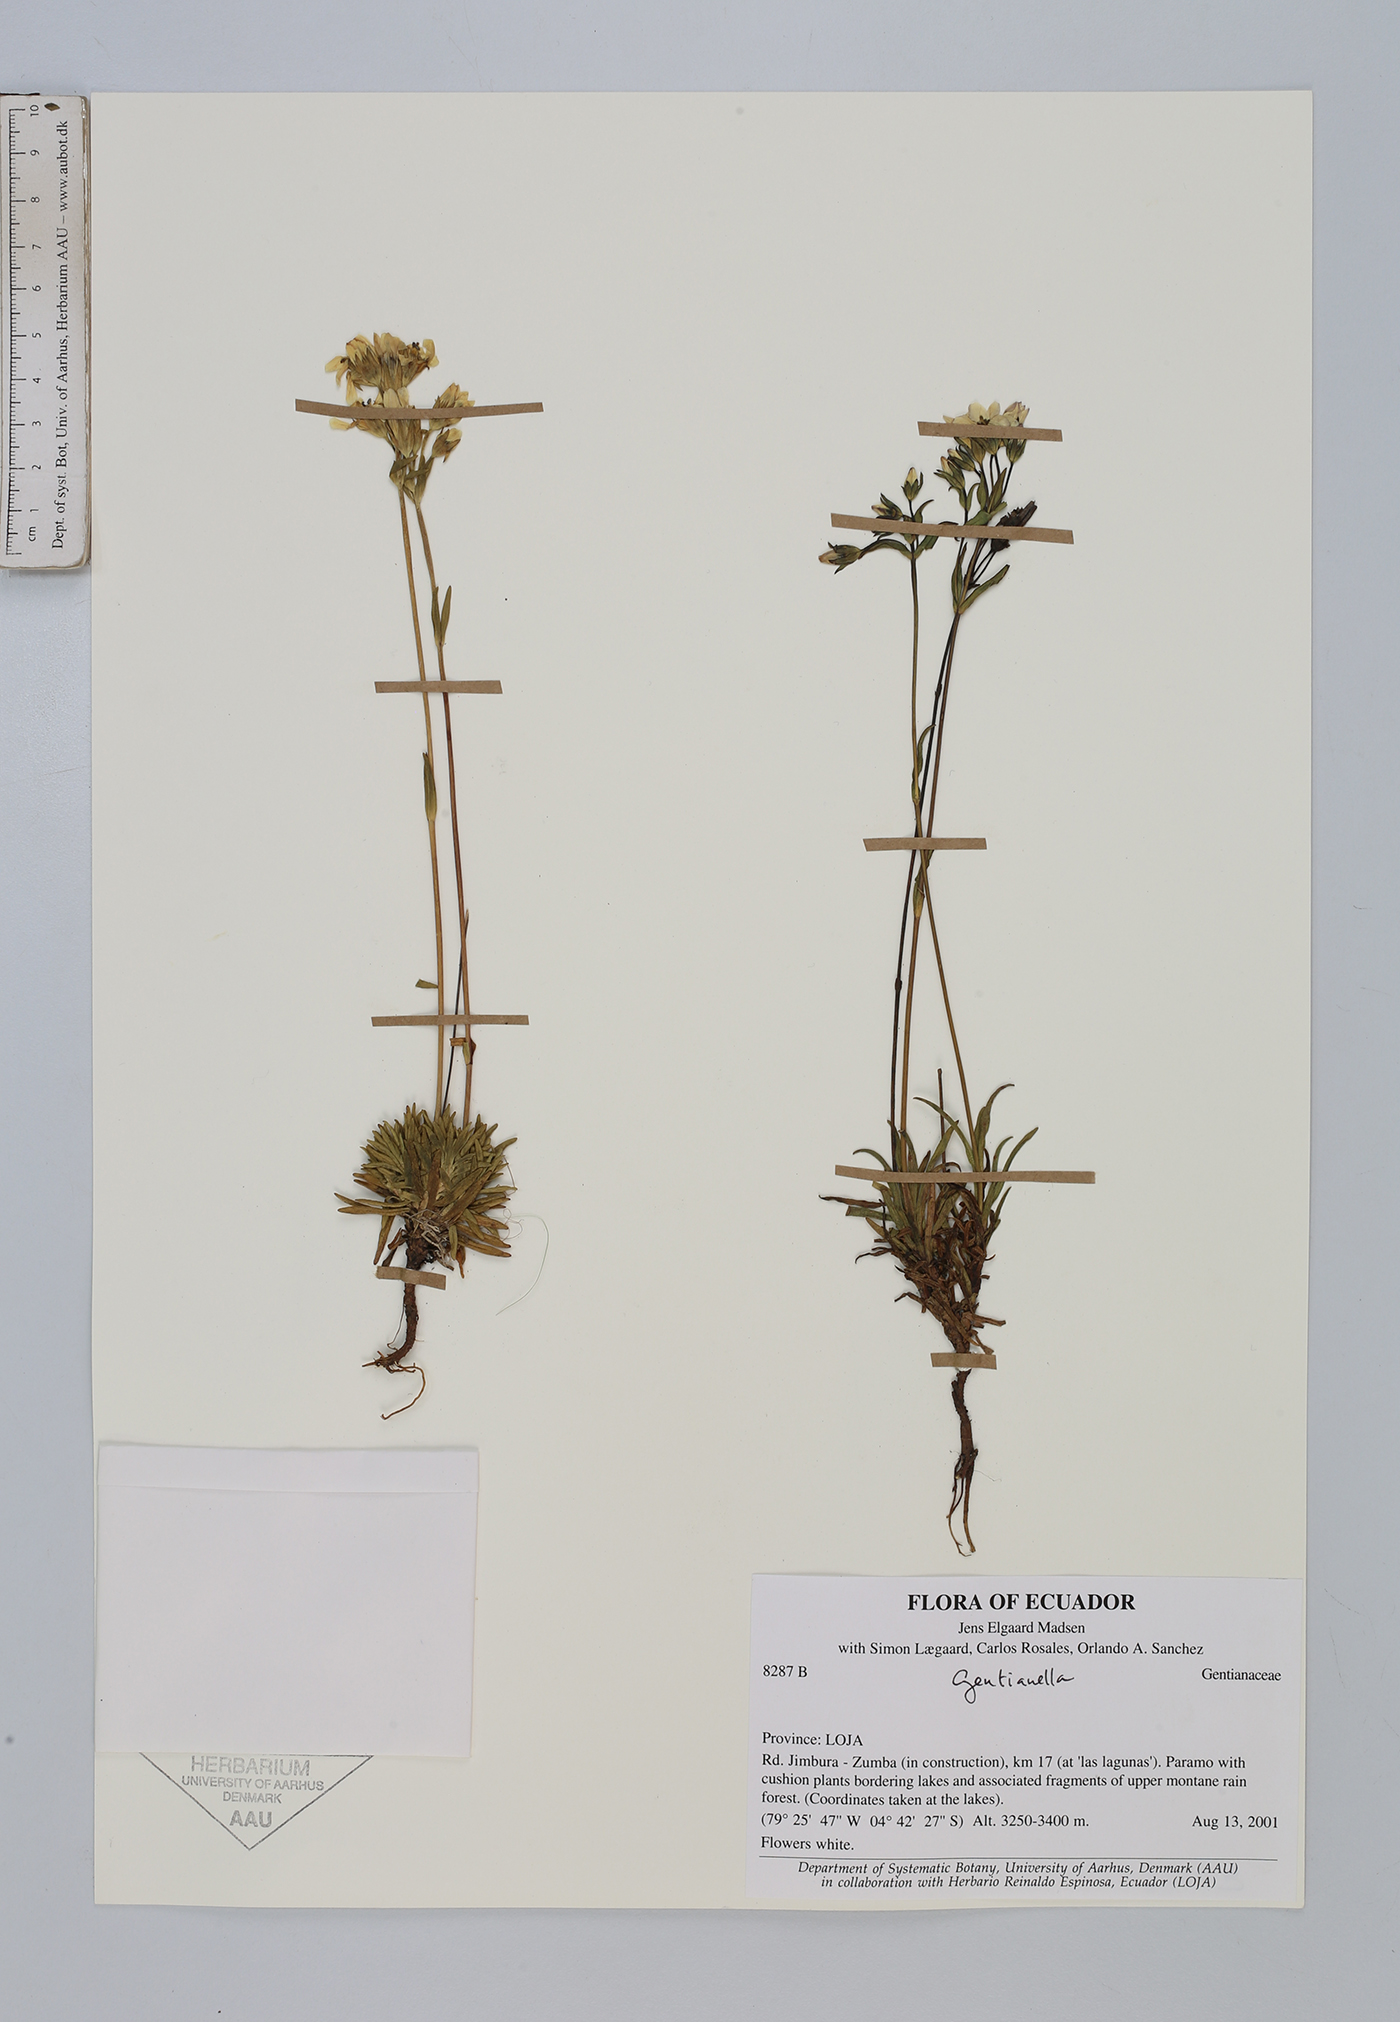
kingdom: Plantae
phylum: Tracheophyta
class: Magnoliopsida
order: Gentianales
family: Gentianaceae
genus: Gentianella
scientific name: Gentianella
